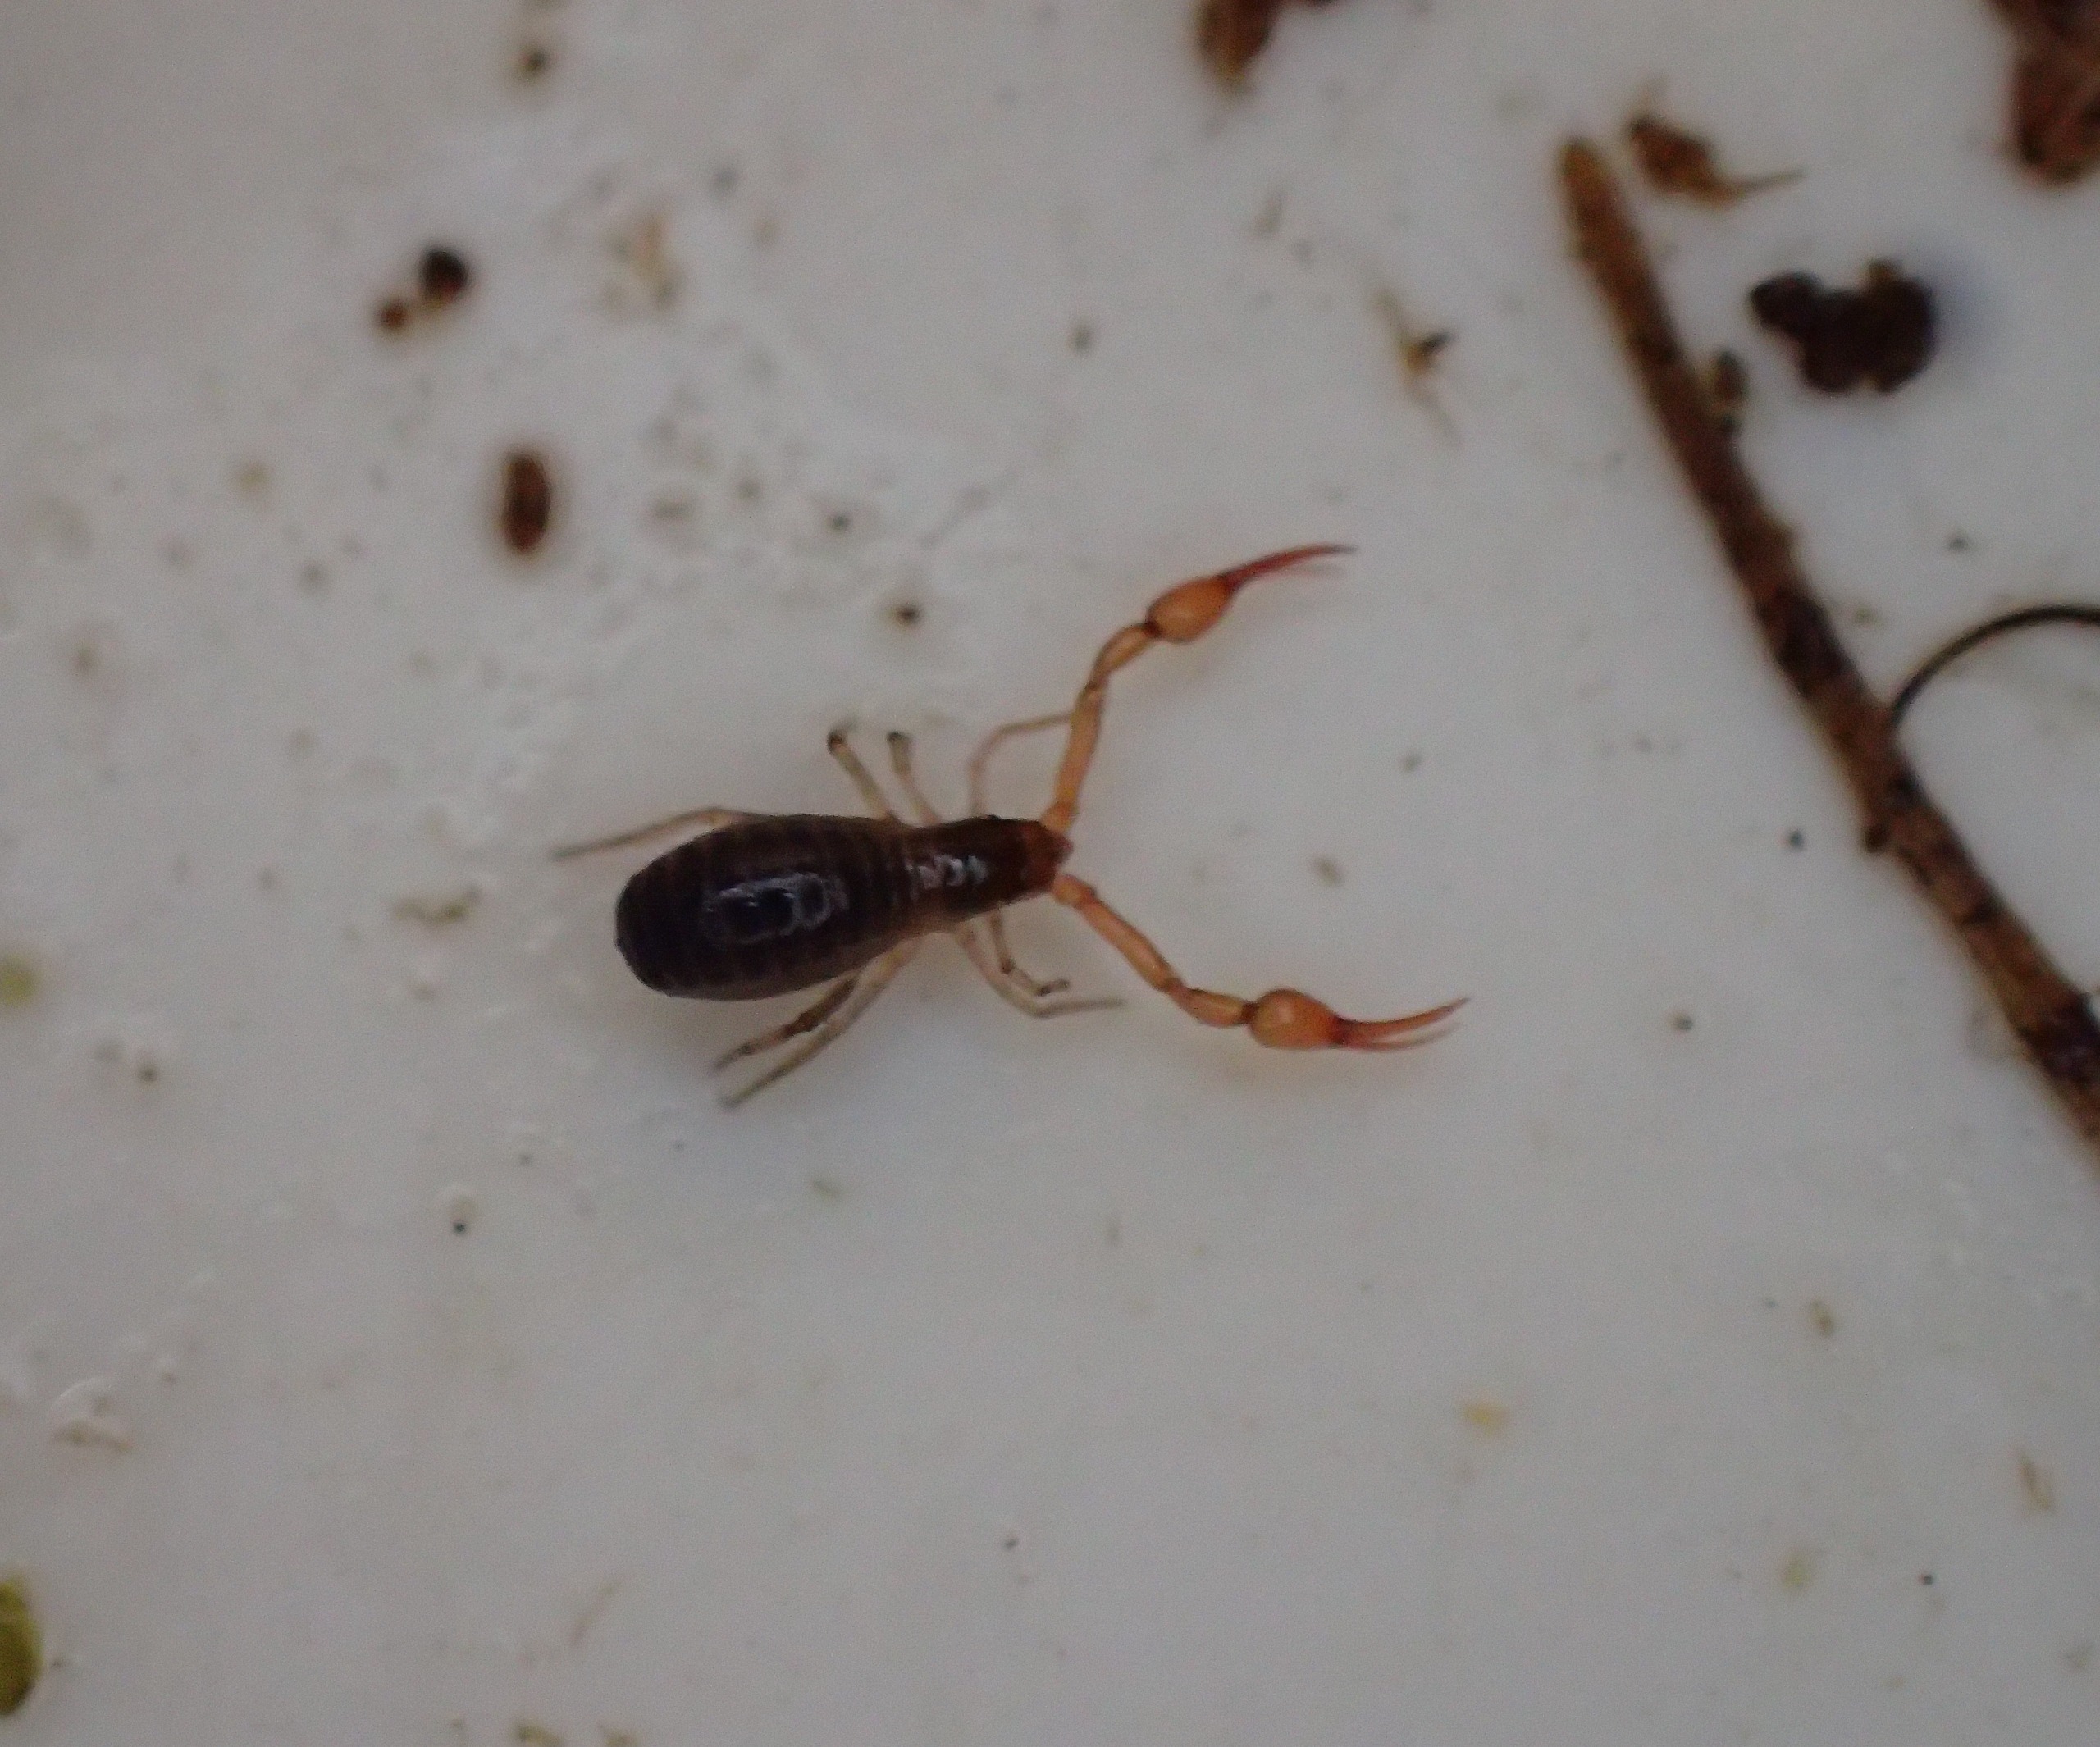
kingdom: Animalia
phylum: Arthropoda
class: Arachnida
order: Pseudoscorpiones
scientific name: Pseudoscorpiones
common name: Mosskorpioner
